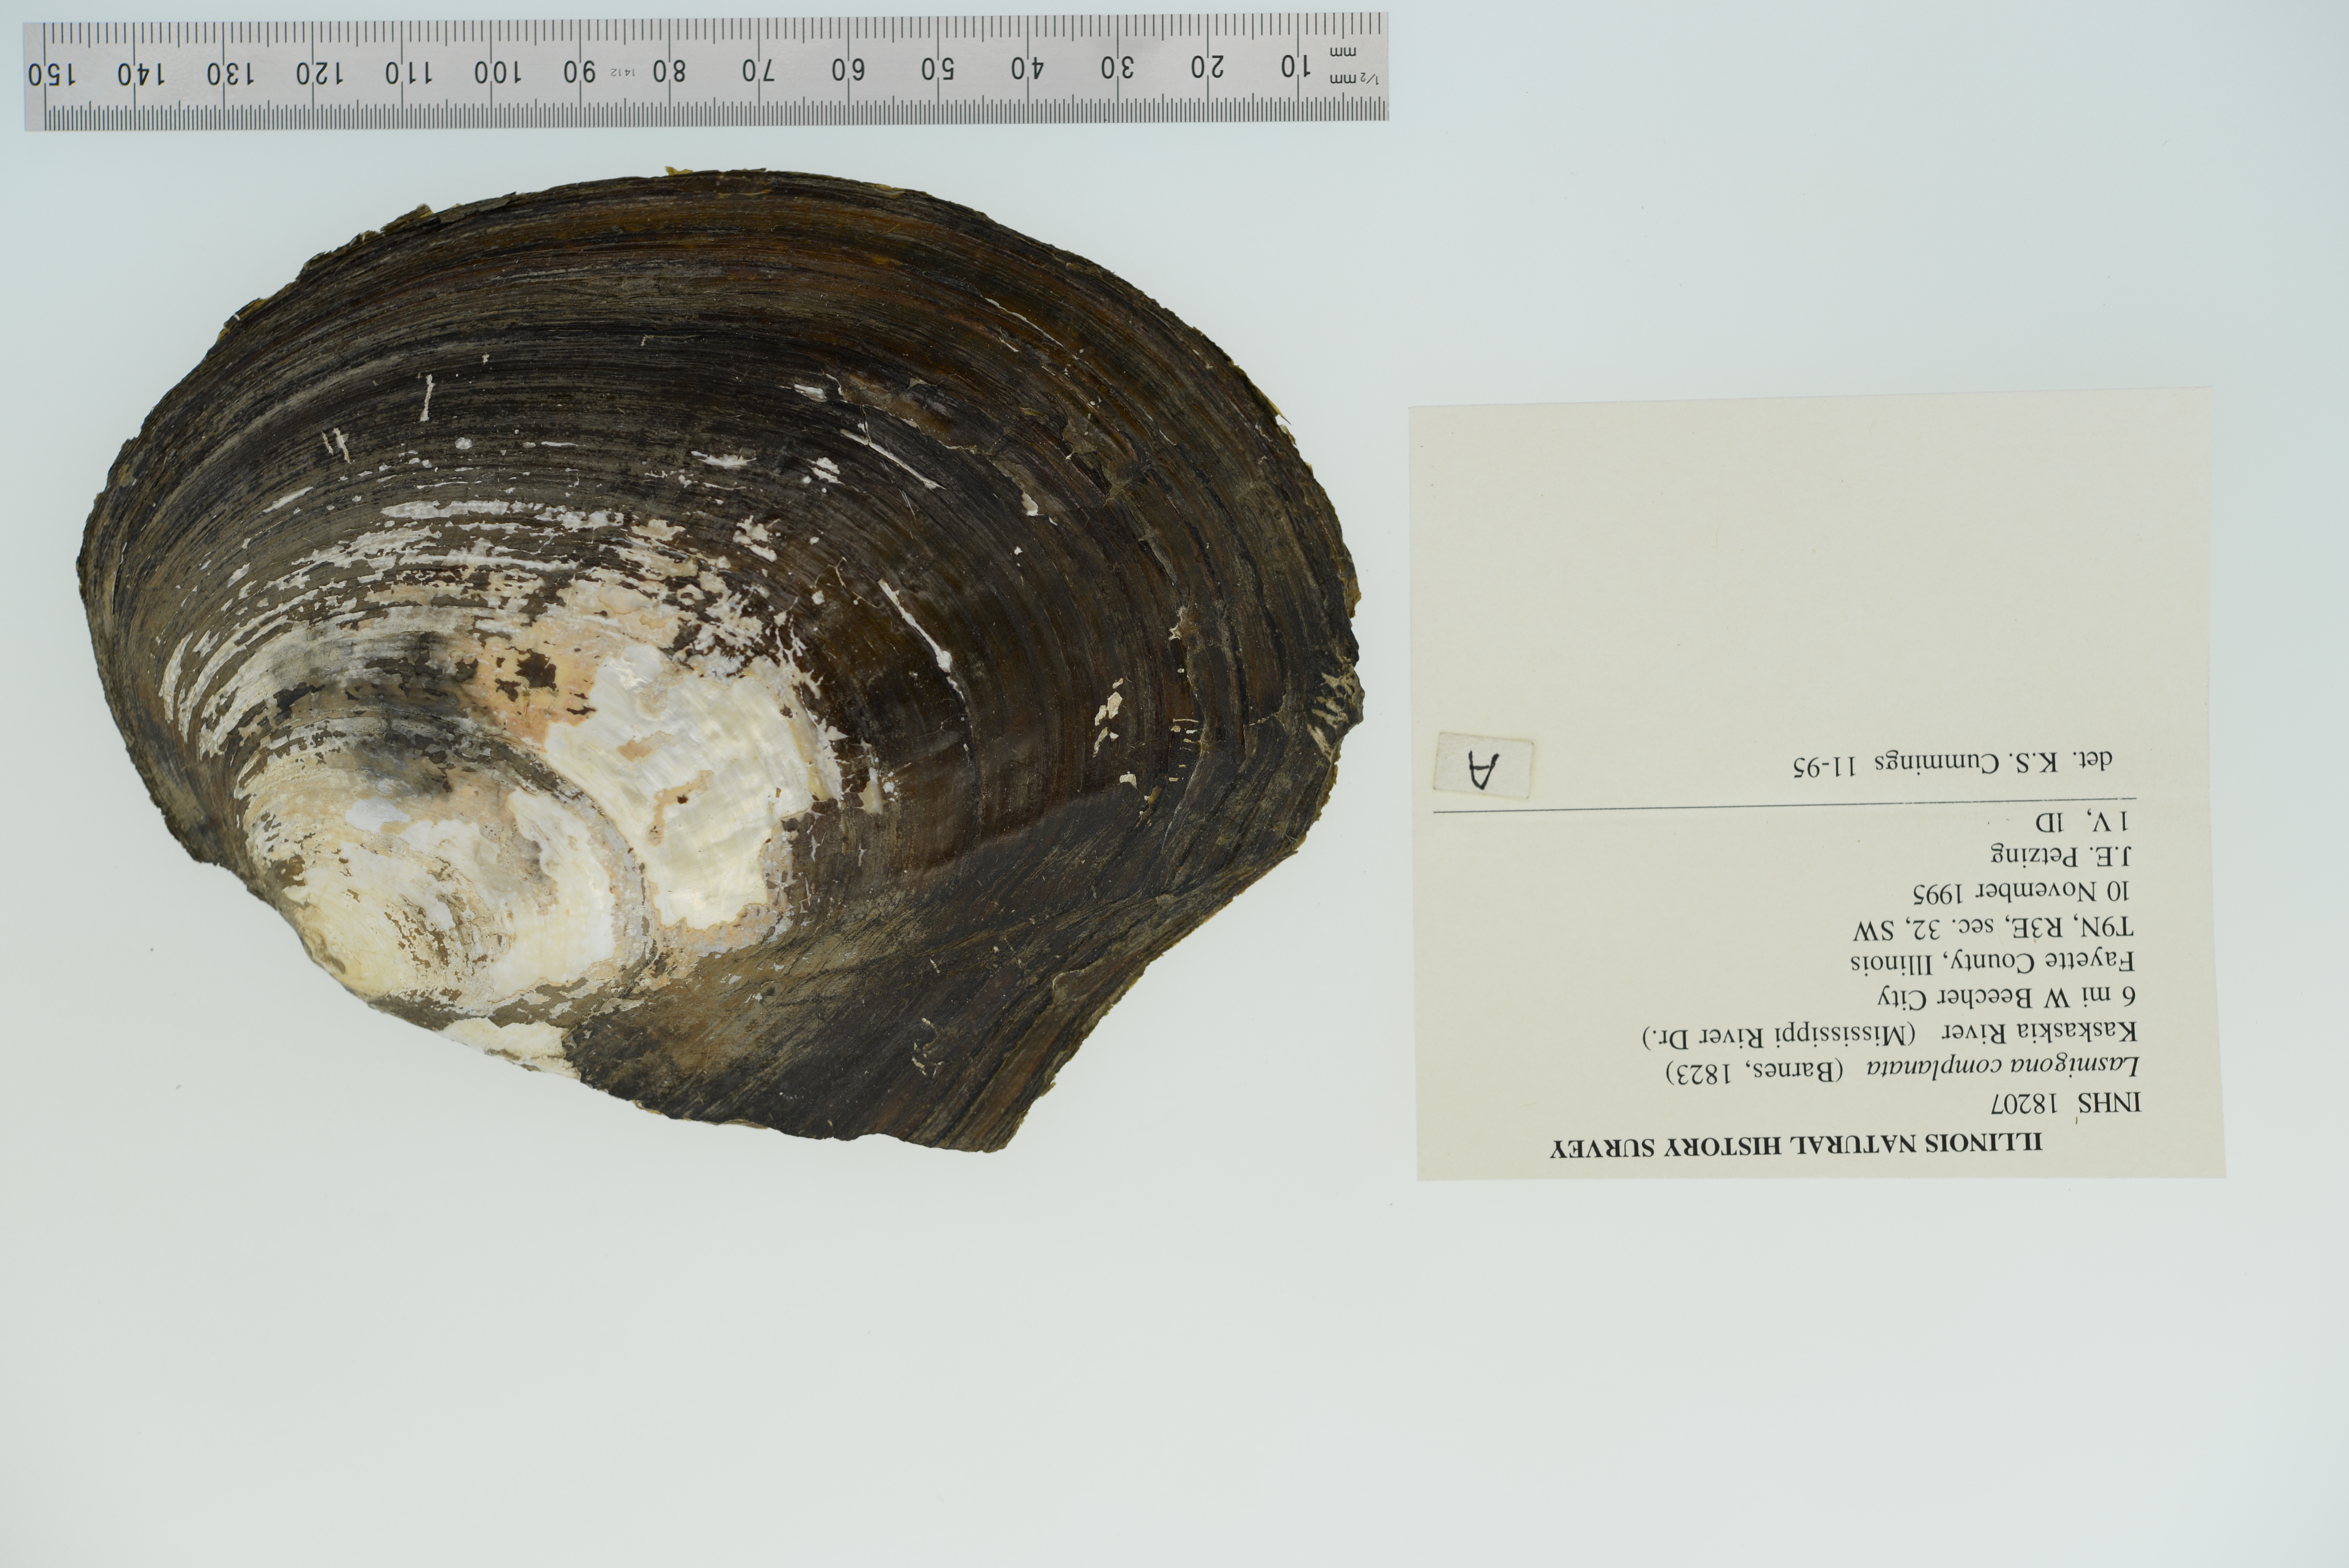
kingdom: Animalia
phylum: Mollusca
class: Bivalvia
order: Unionida
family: Unionidae
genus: Lasmigona
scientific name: Lasmigona complanata
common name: White heelsplitter
